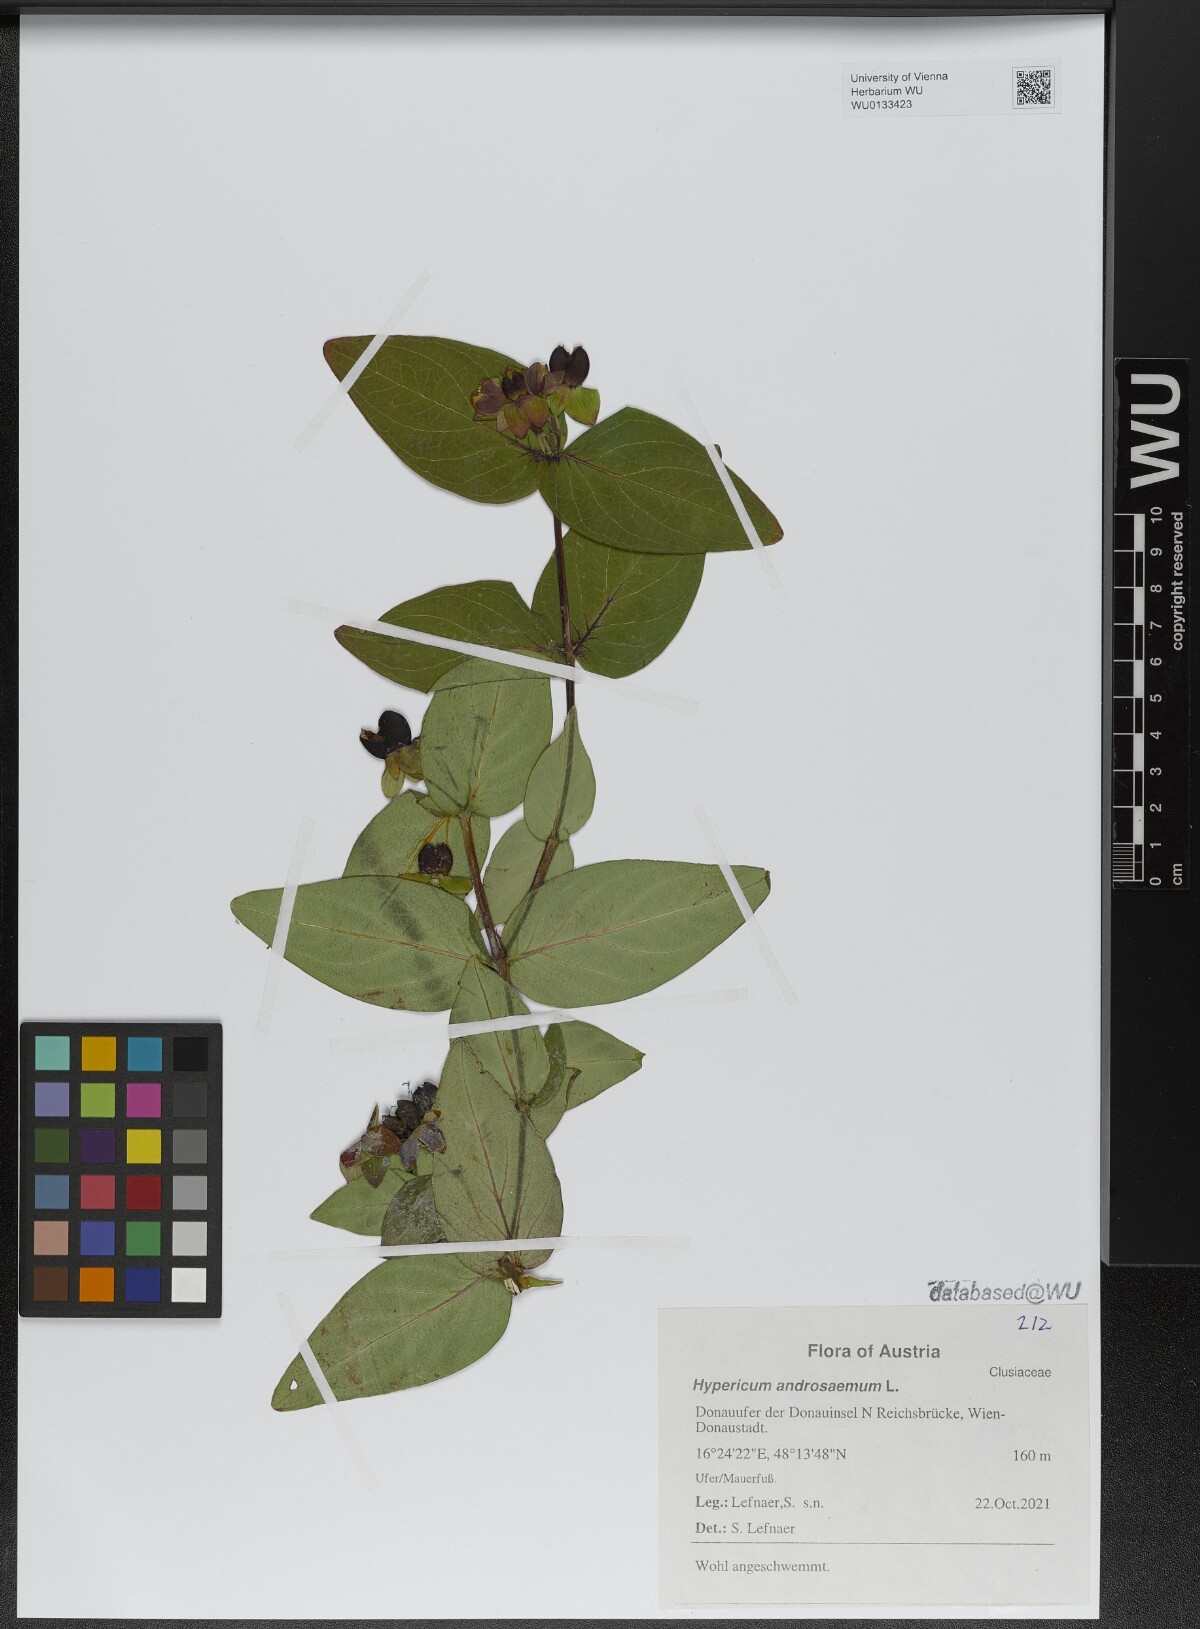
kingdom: Plantae
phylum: Tracheophyta
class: Magnoliopsida
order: Malpighiales
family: Hypericaceae
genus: Hypericum
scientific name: Hypericum androsaemum
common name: Sweet-amber
